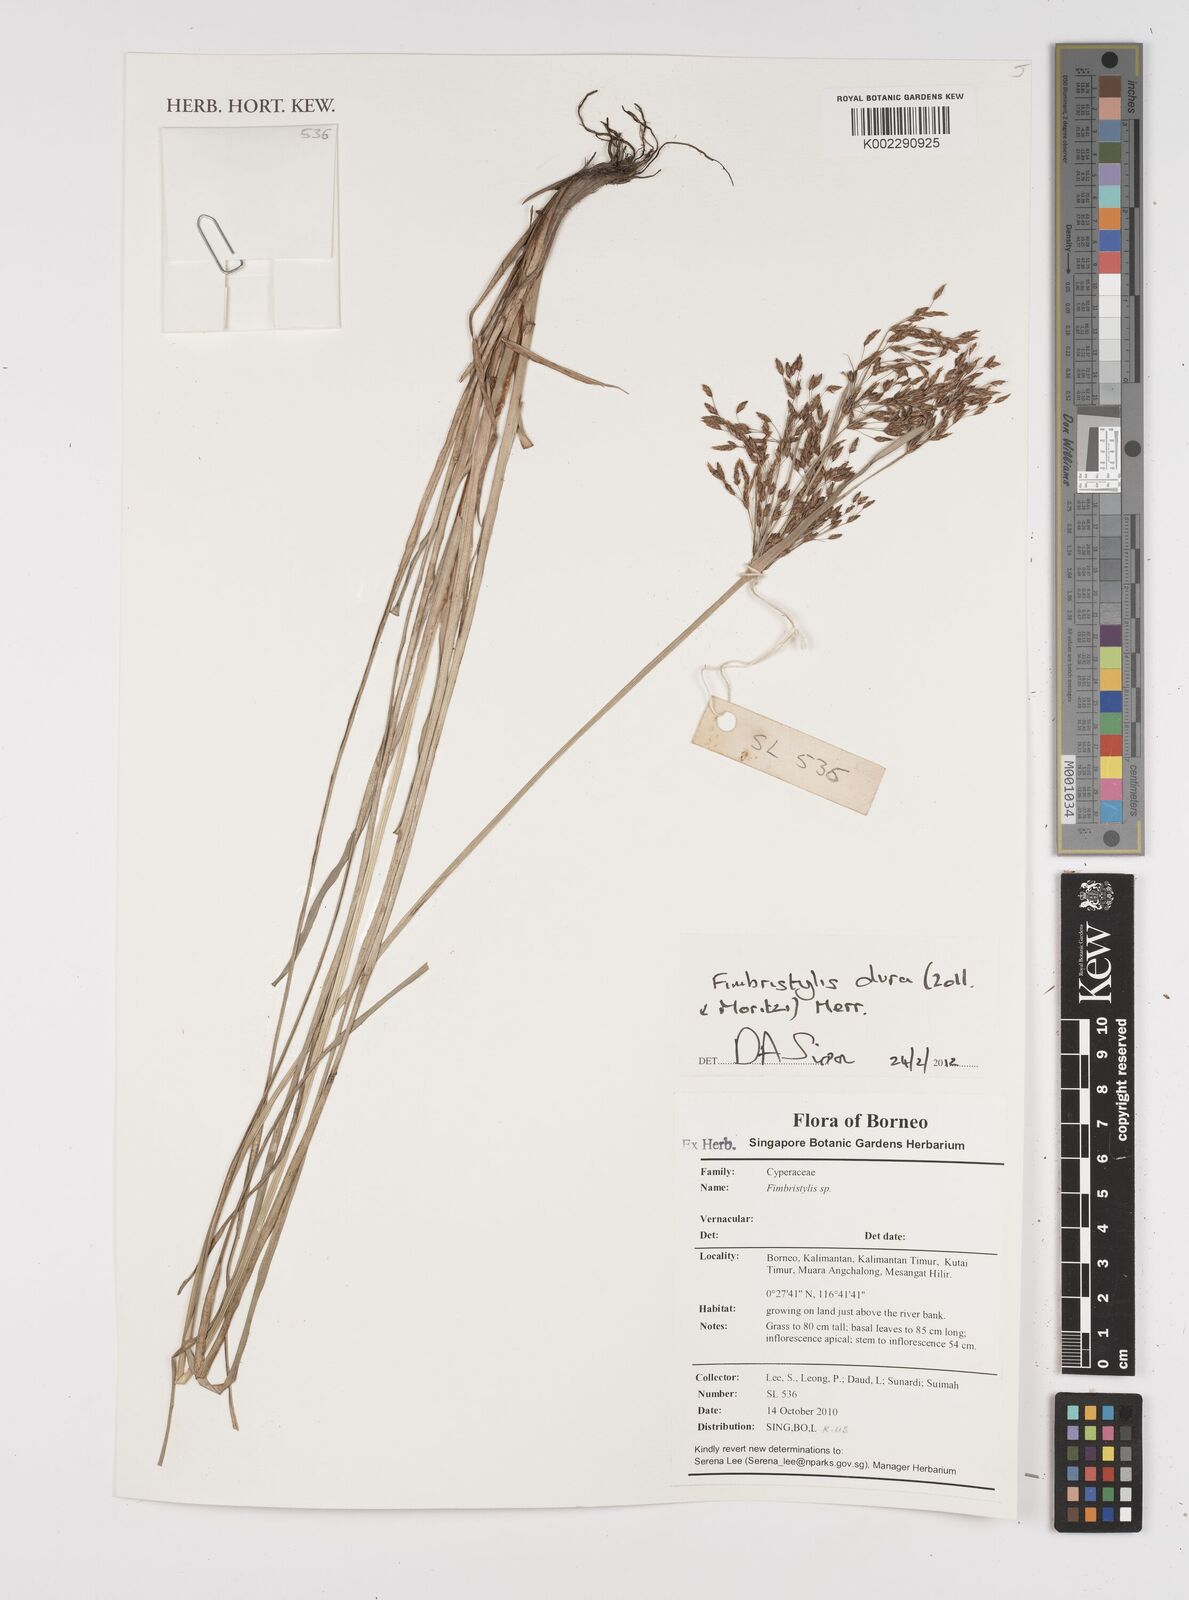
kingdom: Plantae
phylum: Tracheophyta
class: Liliopsida
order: Poales
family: Cyperaceae
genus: Fimbristylis
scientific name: Fimbristylis dura
